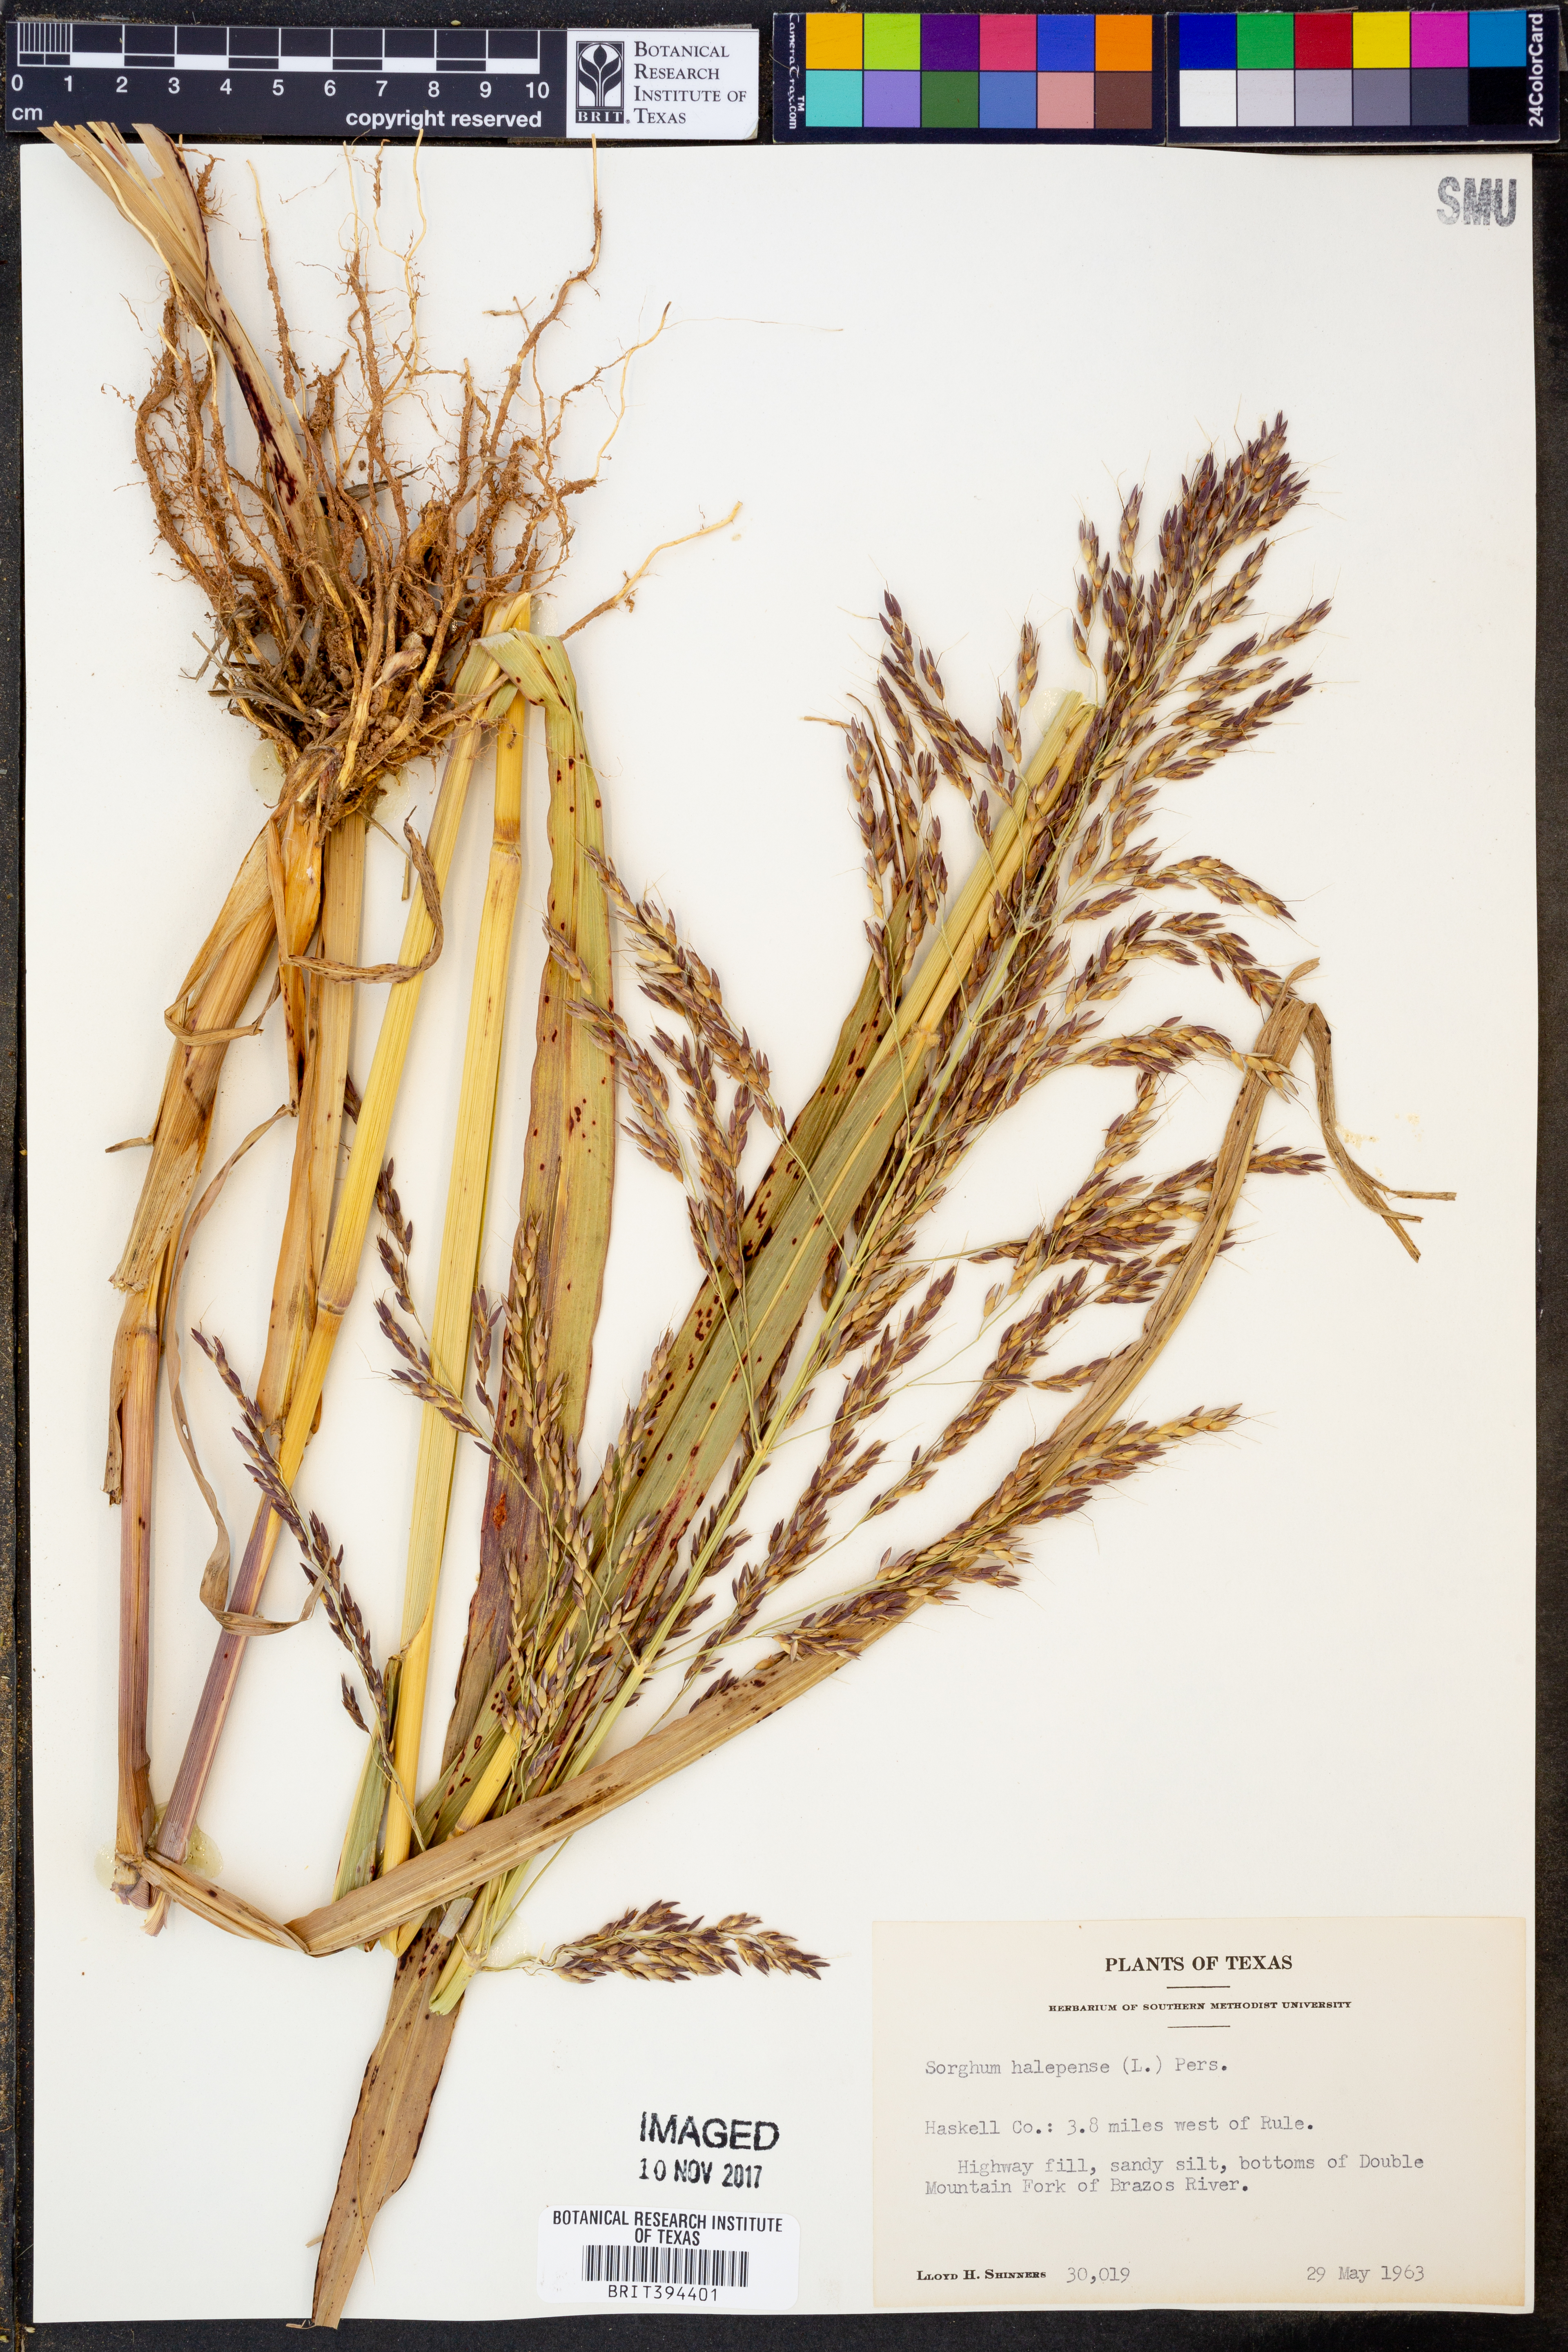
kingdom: Plantae
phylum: Tracheophyta
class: Liliopsida
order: Poales
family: Poaceae
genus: Sorghum
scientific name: Sorghum halepense
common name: Johnson-grass
